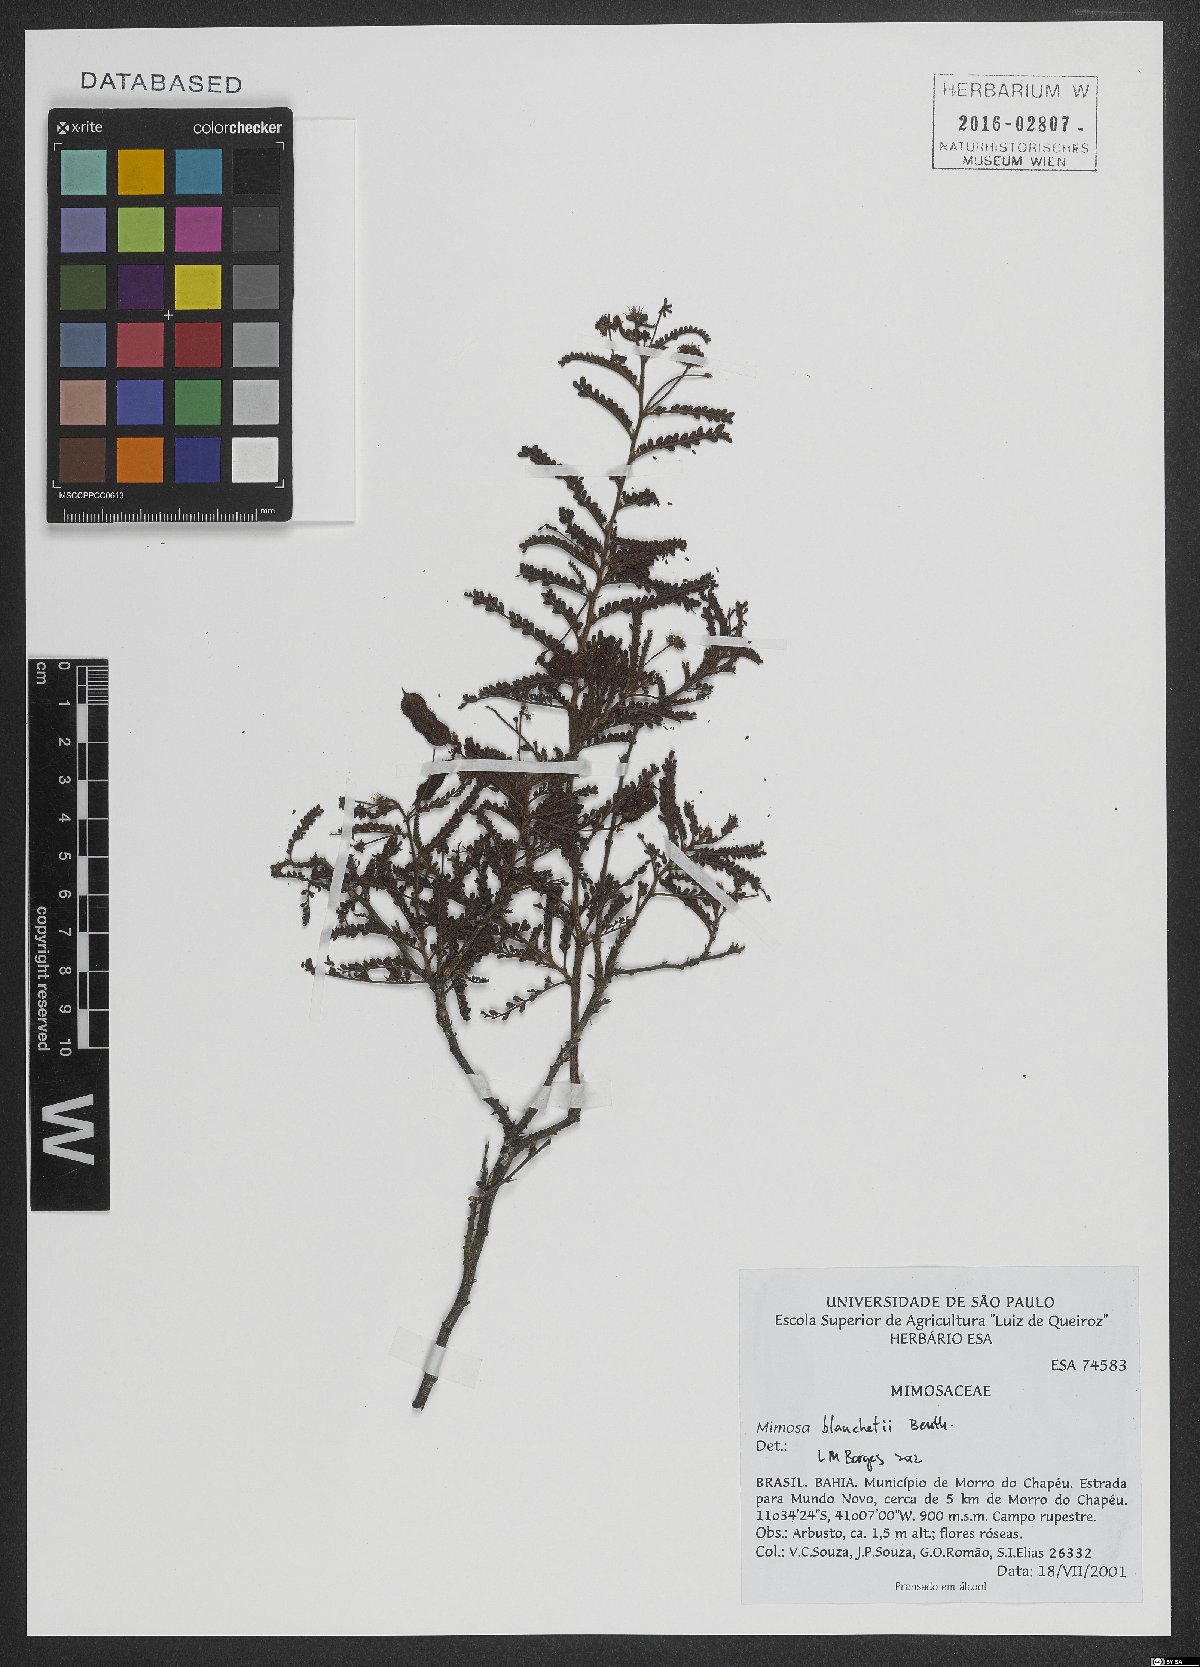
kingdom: Plantae
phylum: Tracheophyta
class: Magnoliopsida
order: Fabales
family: Fabaceae
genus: Mimosa
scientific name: Mimosa blanchetii
